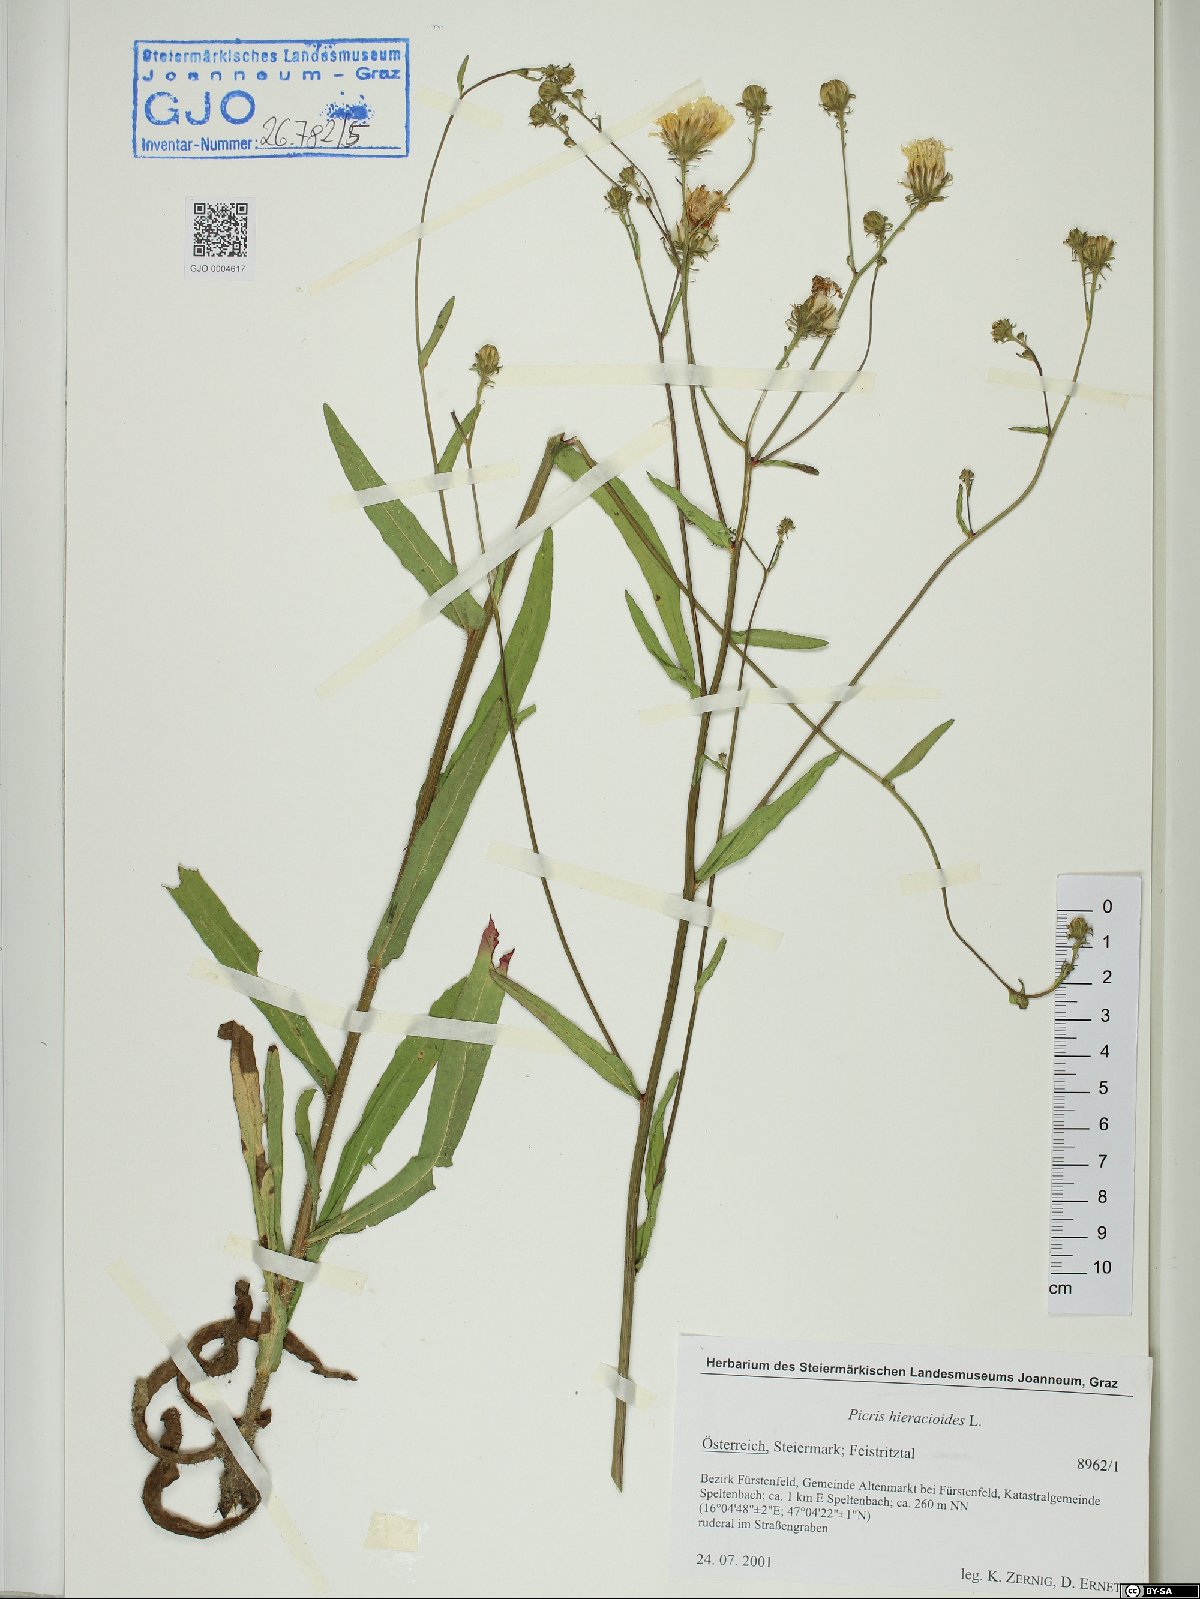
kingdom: Plantae
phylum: Tracheophyta
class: Magnoliopsida
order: Asterales
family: Asteraceae
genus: Picris
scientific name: Picris hieracioides
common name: Hawkweed oxtongue
